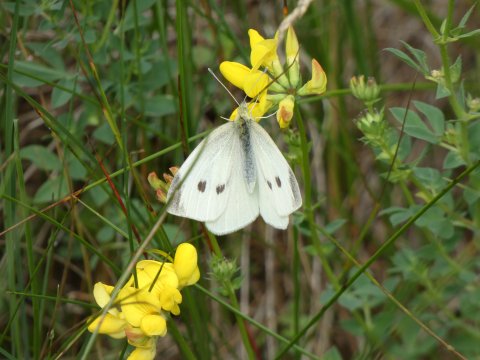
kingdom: Animalia
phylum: Arthropoda
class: Insecta
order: Lepidoptera
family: Pieridae
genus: Pieris
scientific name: Pieris rapae
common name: Cabbage White
